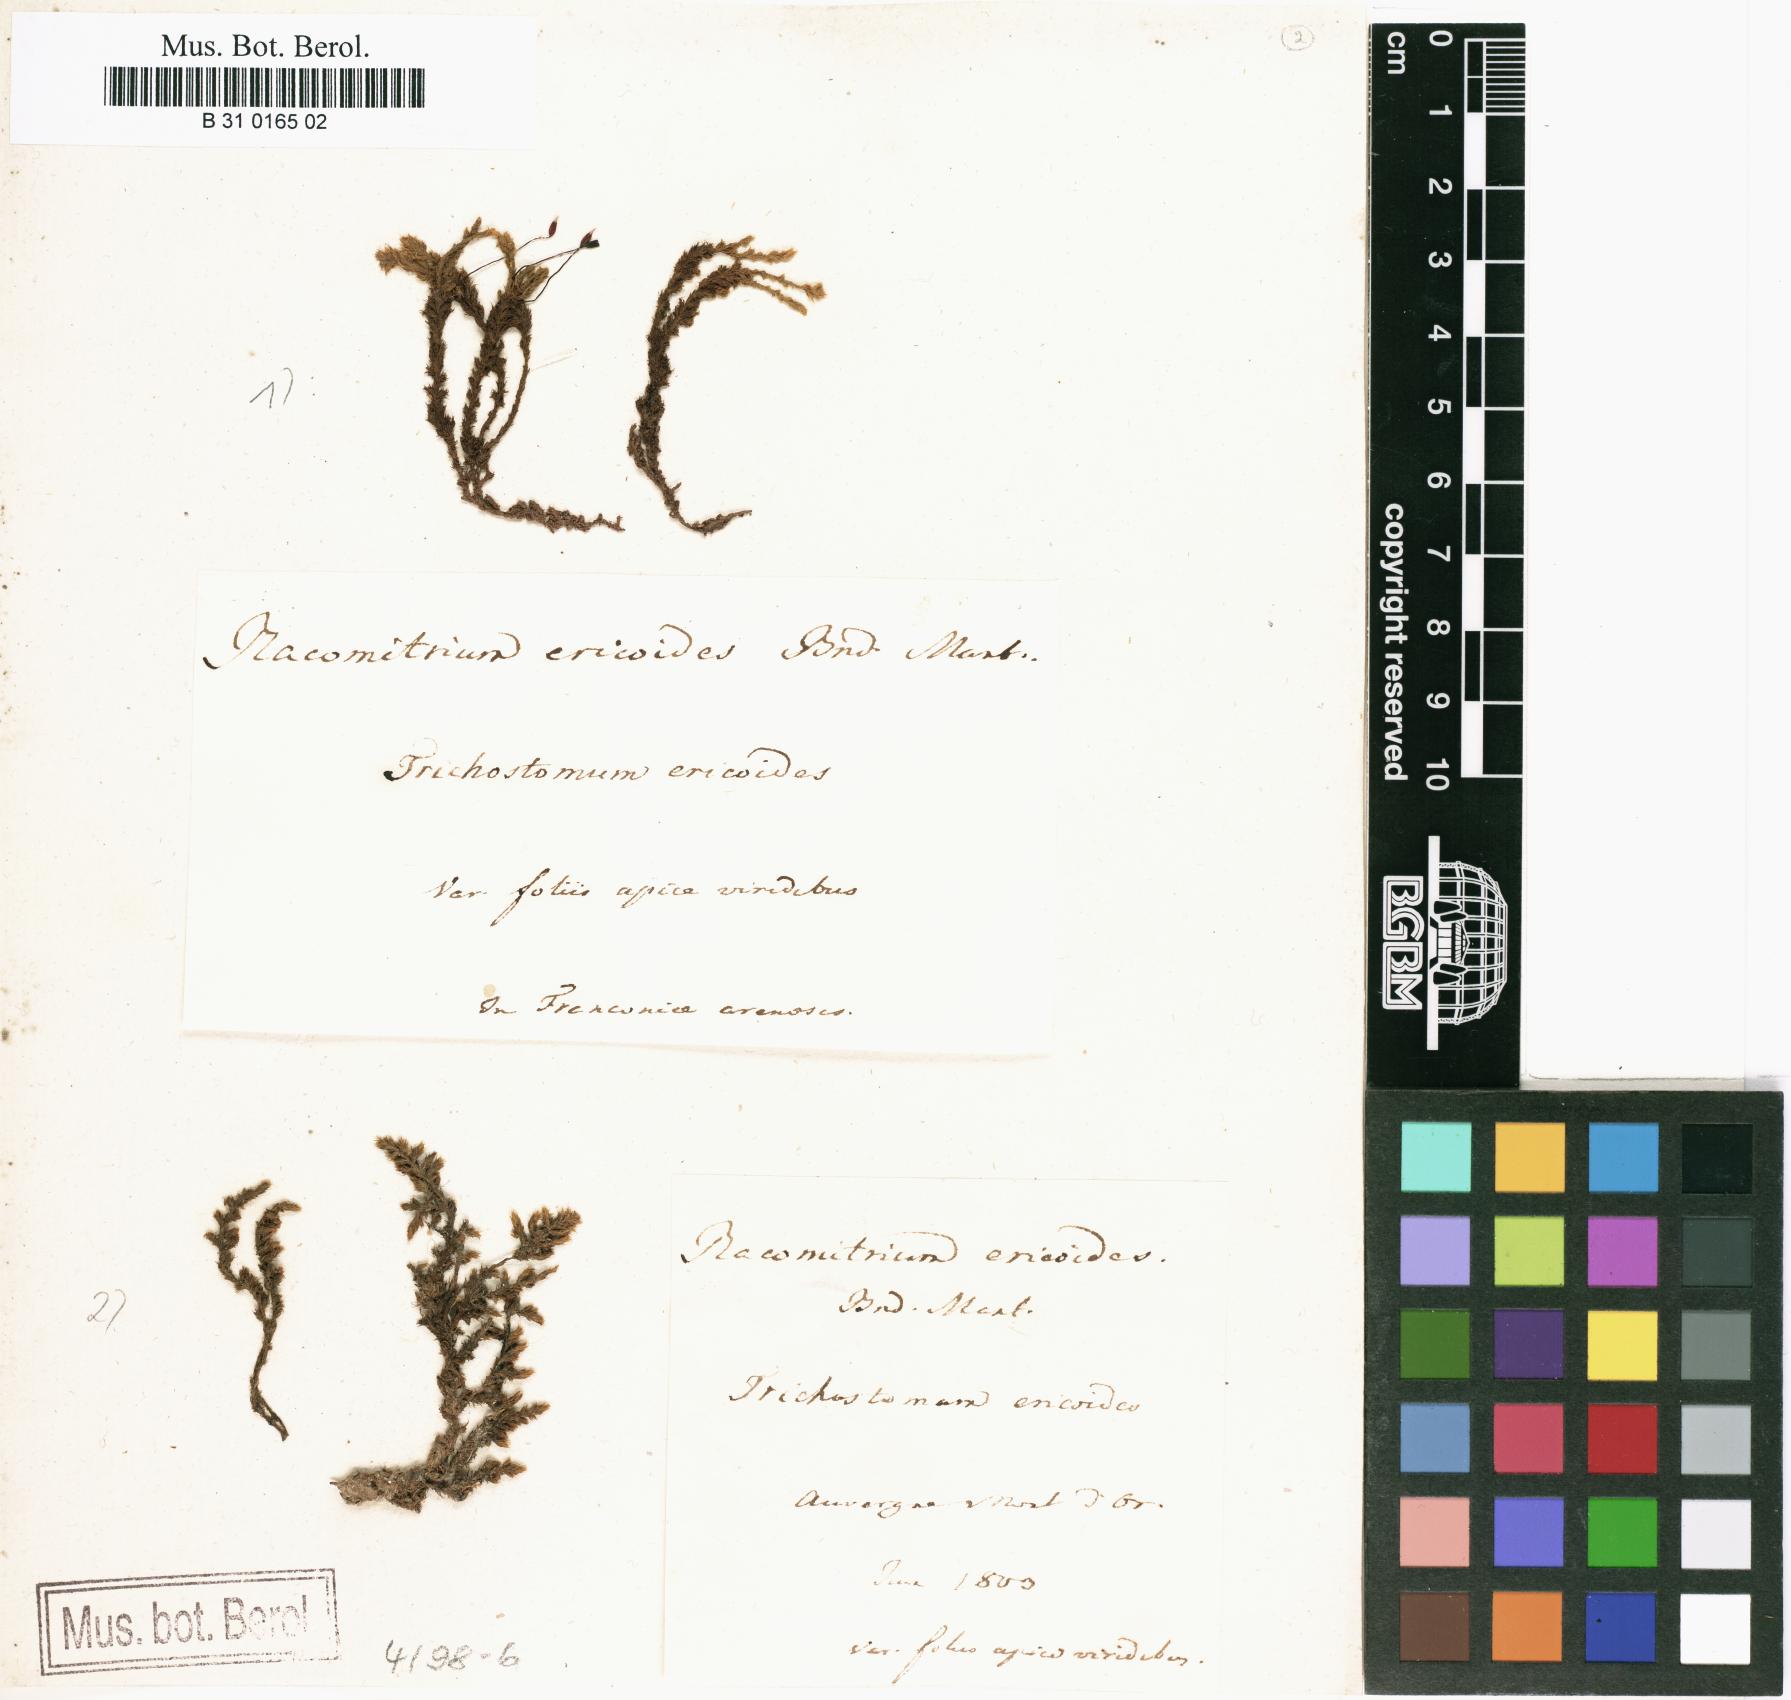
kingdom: Plantae
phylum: Bryophyta
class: Bryopsida
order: Grimmiales
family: Grimmiaceae
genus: Niphotrichum
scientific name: Niphotrichum ericoides
